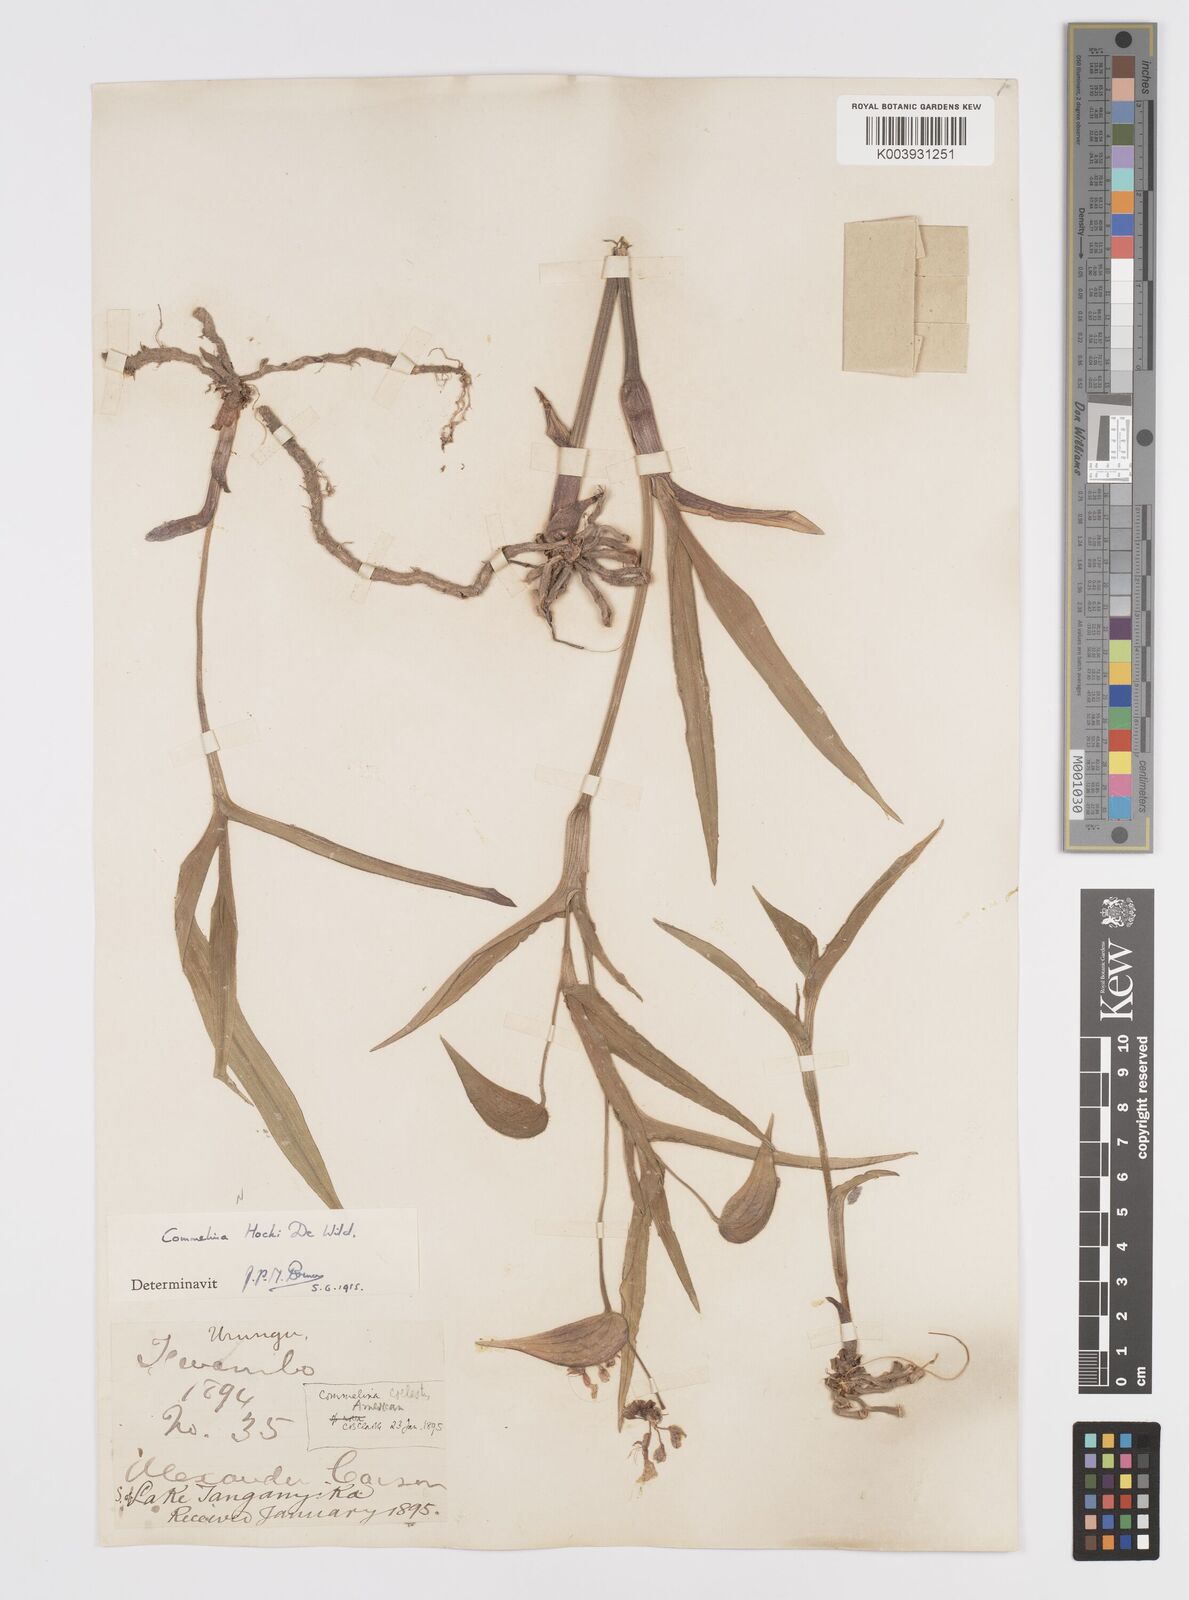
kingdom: Plantae
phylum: Tracheophyta
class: Liliopsida
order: Commelinales
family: Commelinaceae
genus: Commelina
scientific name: Commelina hockii
